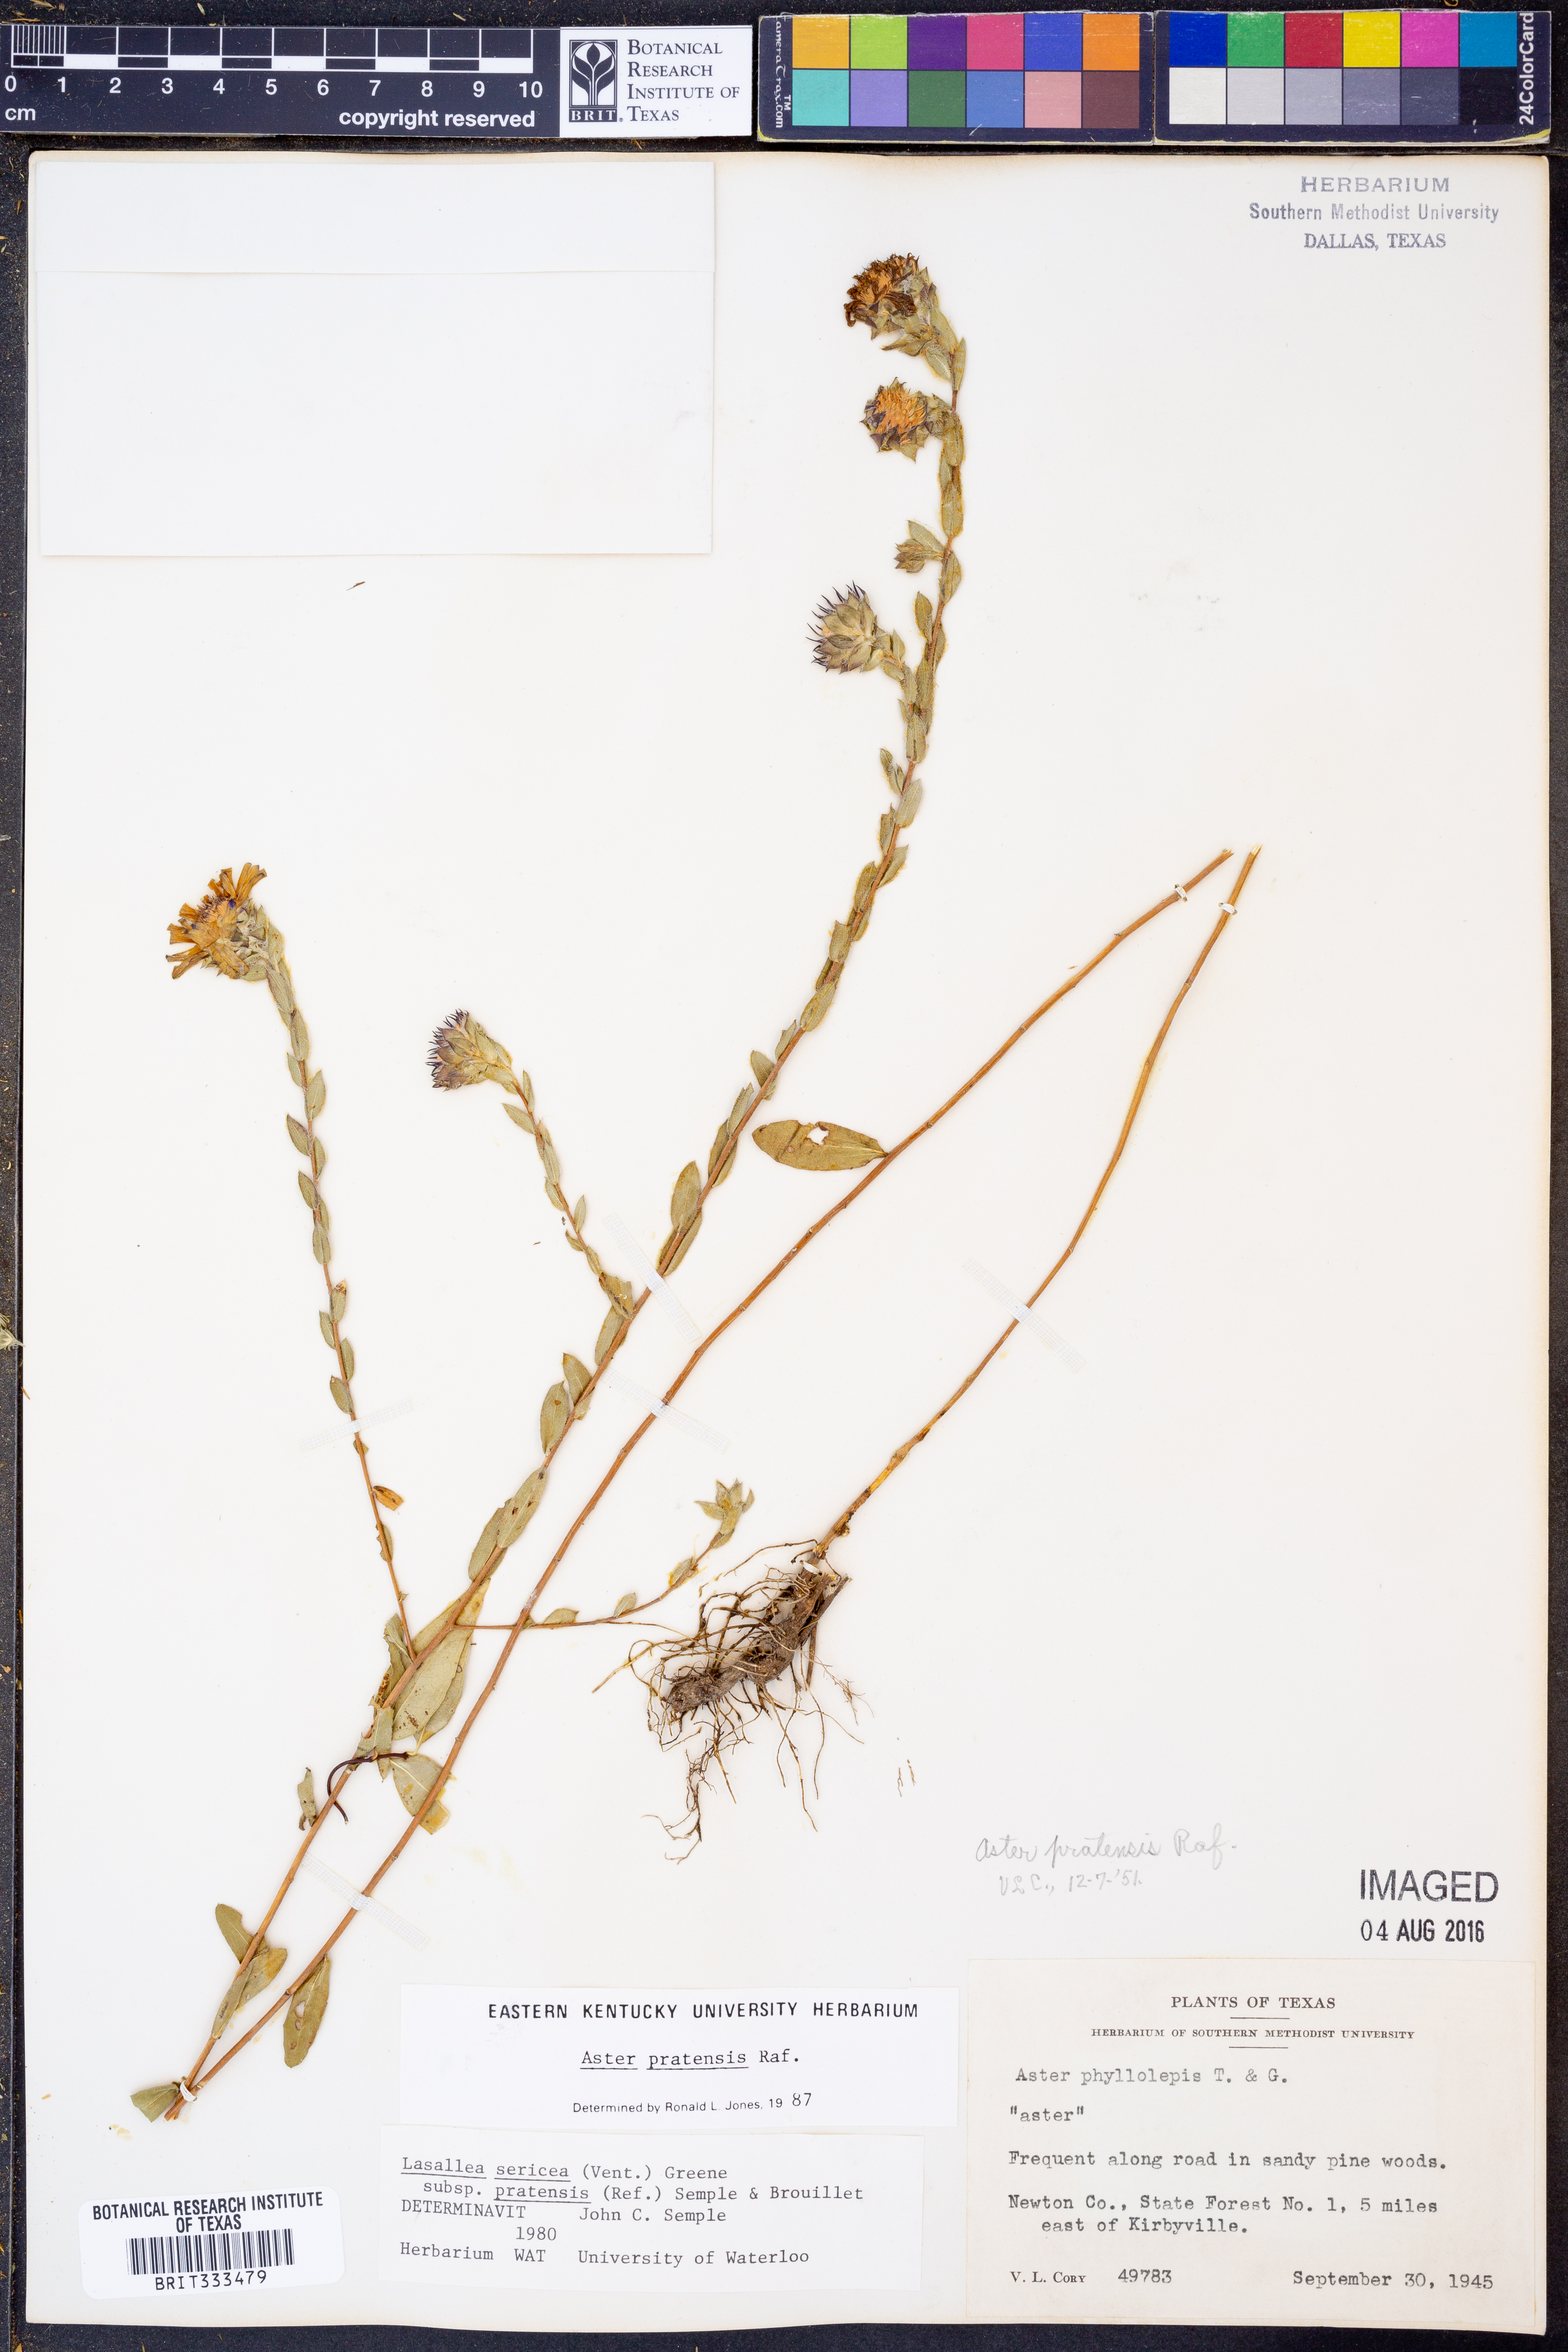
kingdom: Plantae
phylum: Tracheophyta
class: Magnoliopsida
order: Asterales
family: Asteraceae
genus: Symphyotrichum
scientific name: Symphyotrichum pratense
